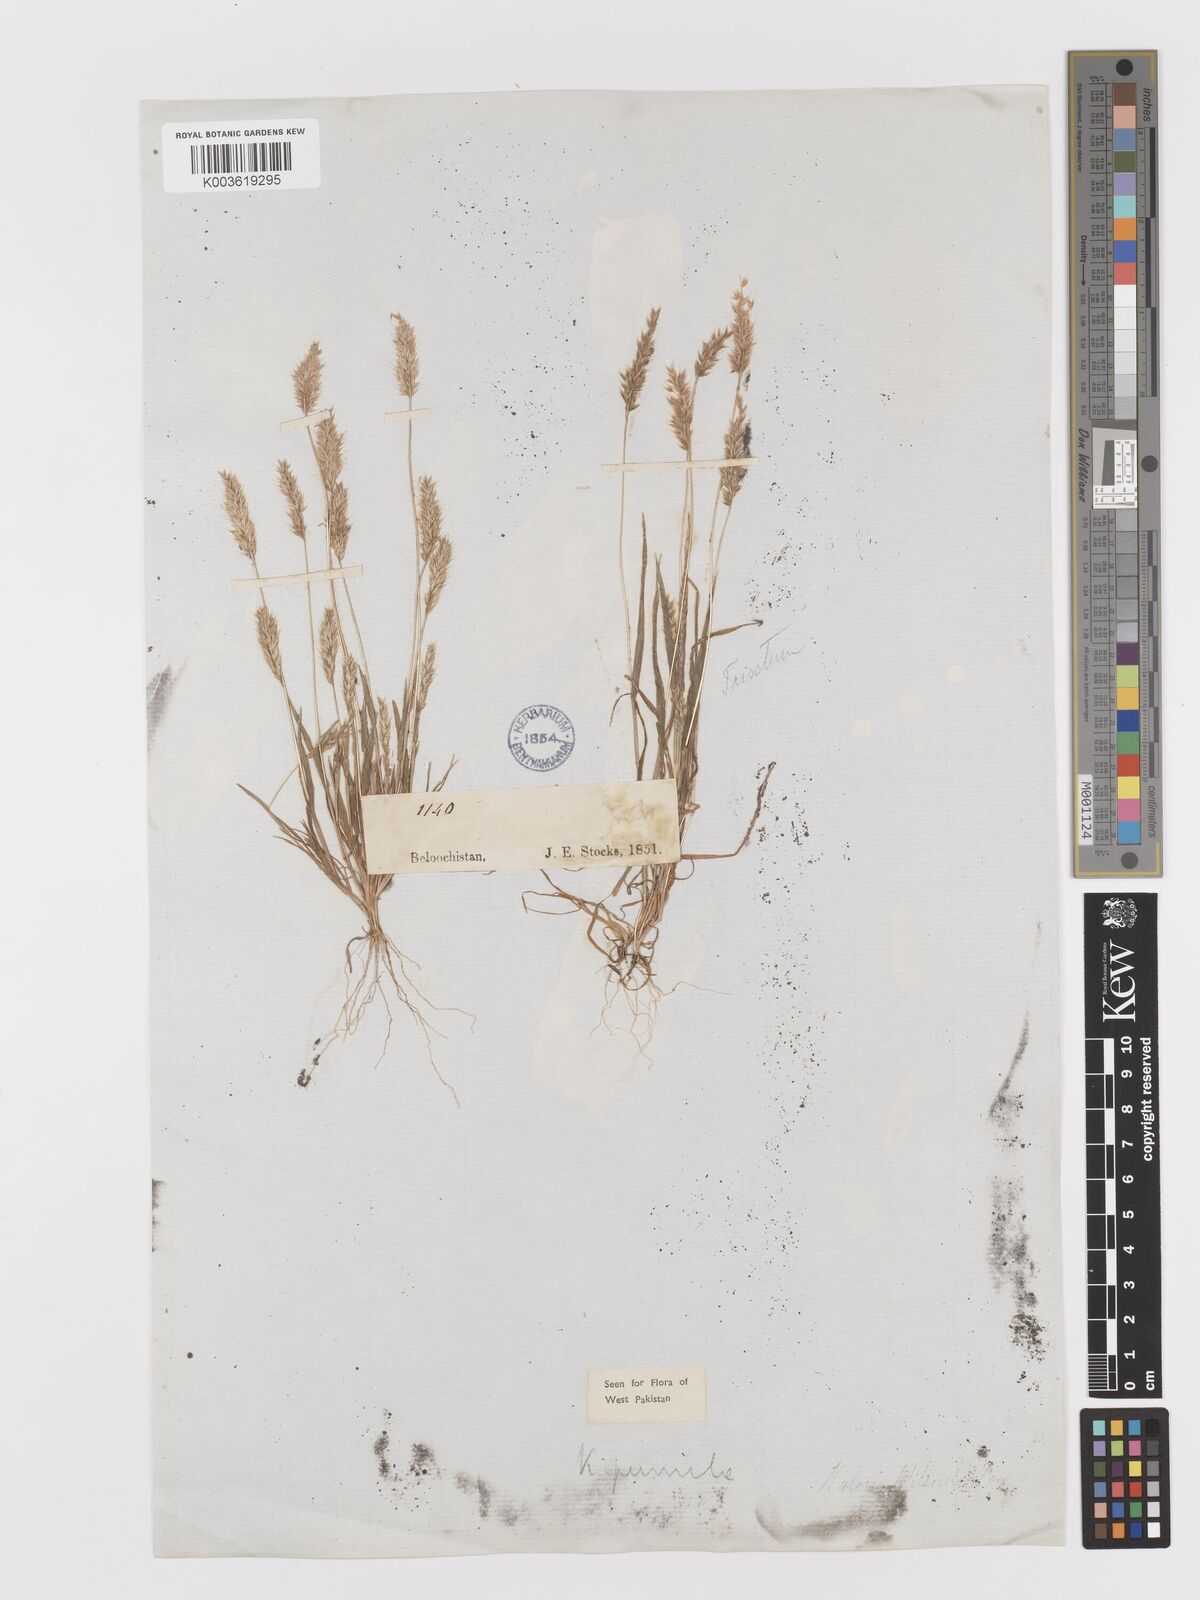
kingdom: Plantae
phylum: Tracheophyta
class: Liliopsida
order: Poales
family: Poaceae
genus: Rostraria
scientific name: Rostraria pumila
